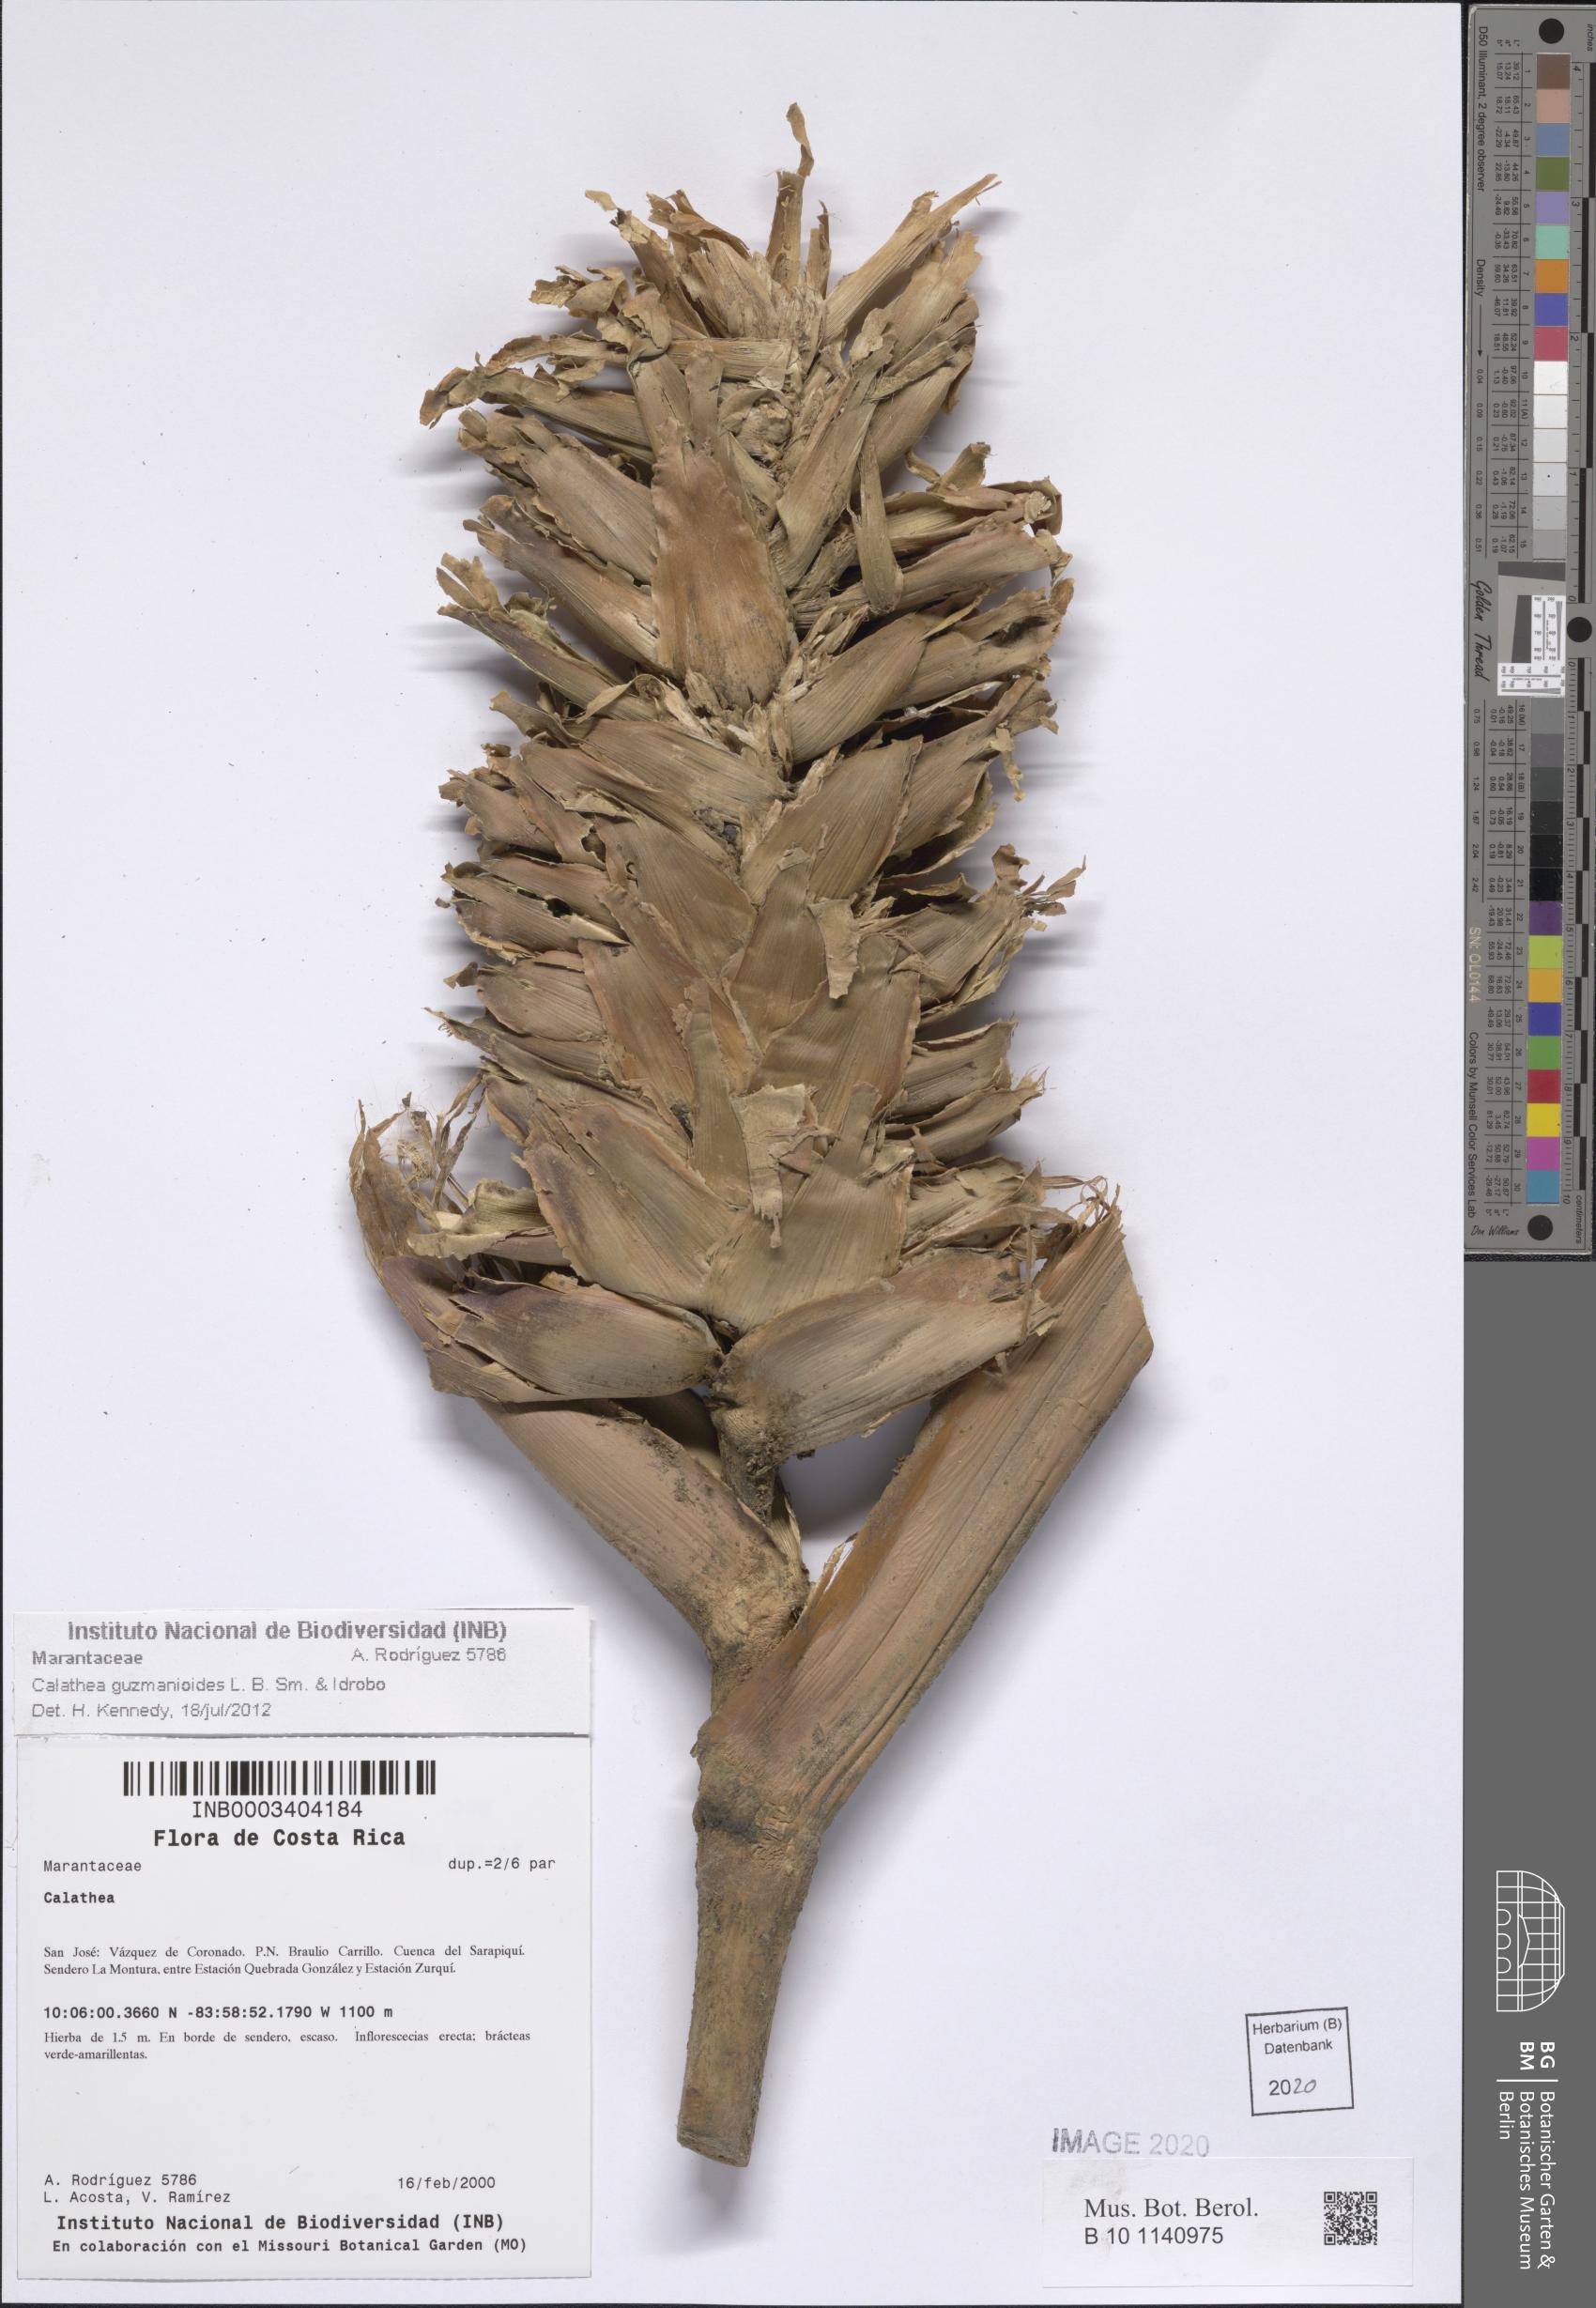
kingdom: Plantae
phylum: Tracheophyta
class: Liliopsida
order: Zingiberales
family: Marantaceae
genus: Calathea
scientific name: Calathea guzmanioides
